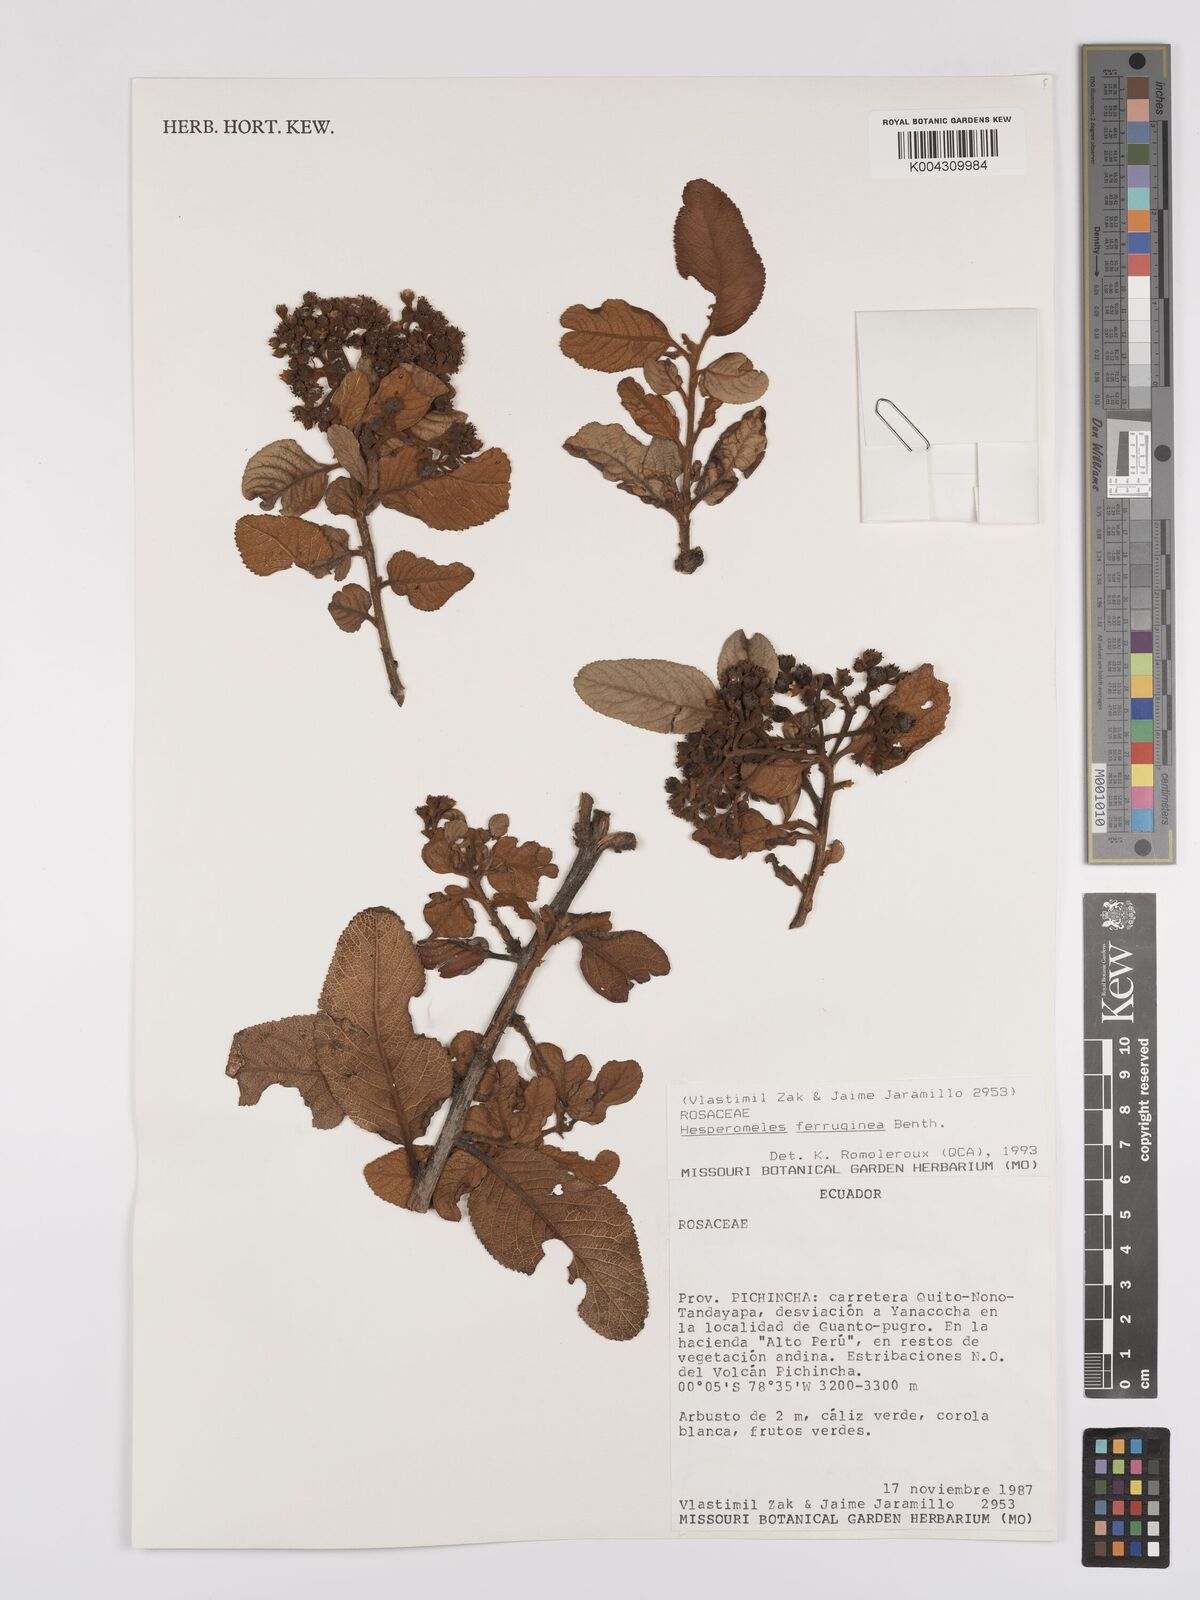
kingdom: Plantae
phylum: Tracheophyta
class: Magnoliopsida
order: Rosales
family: Rosaceae
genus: Hesperomeles
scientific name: Hesperomeles ferruginea
